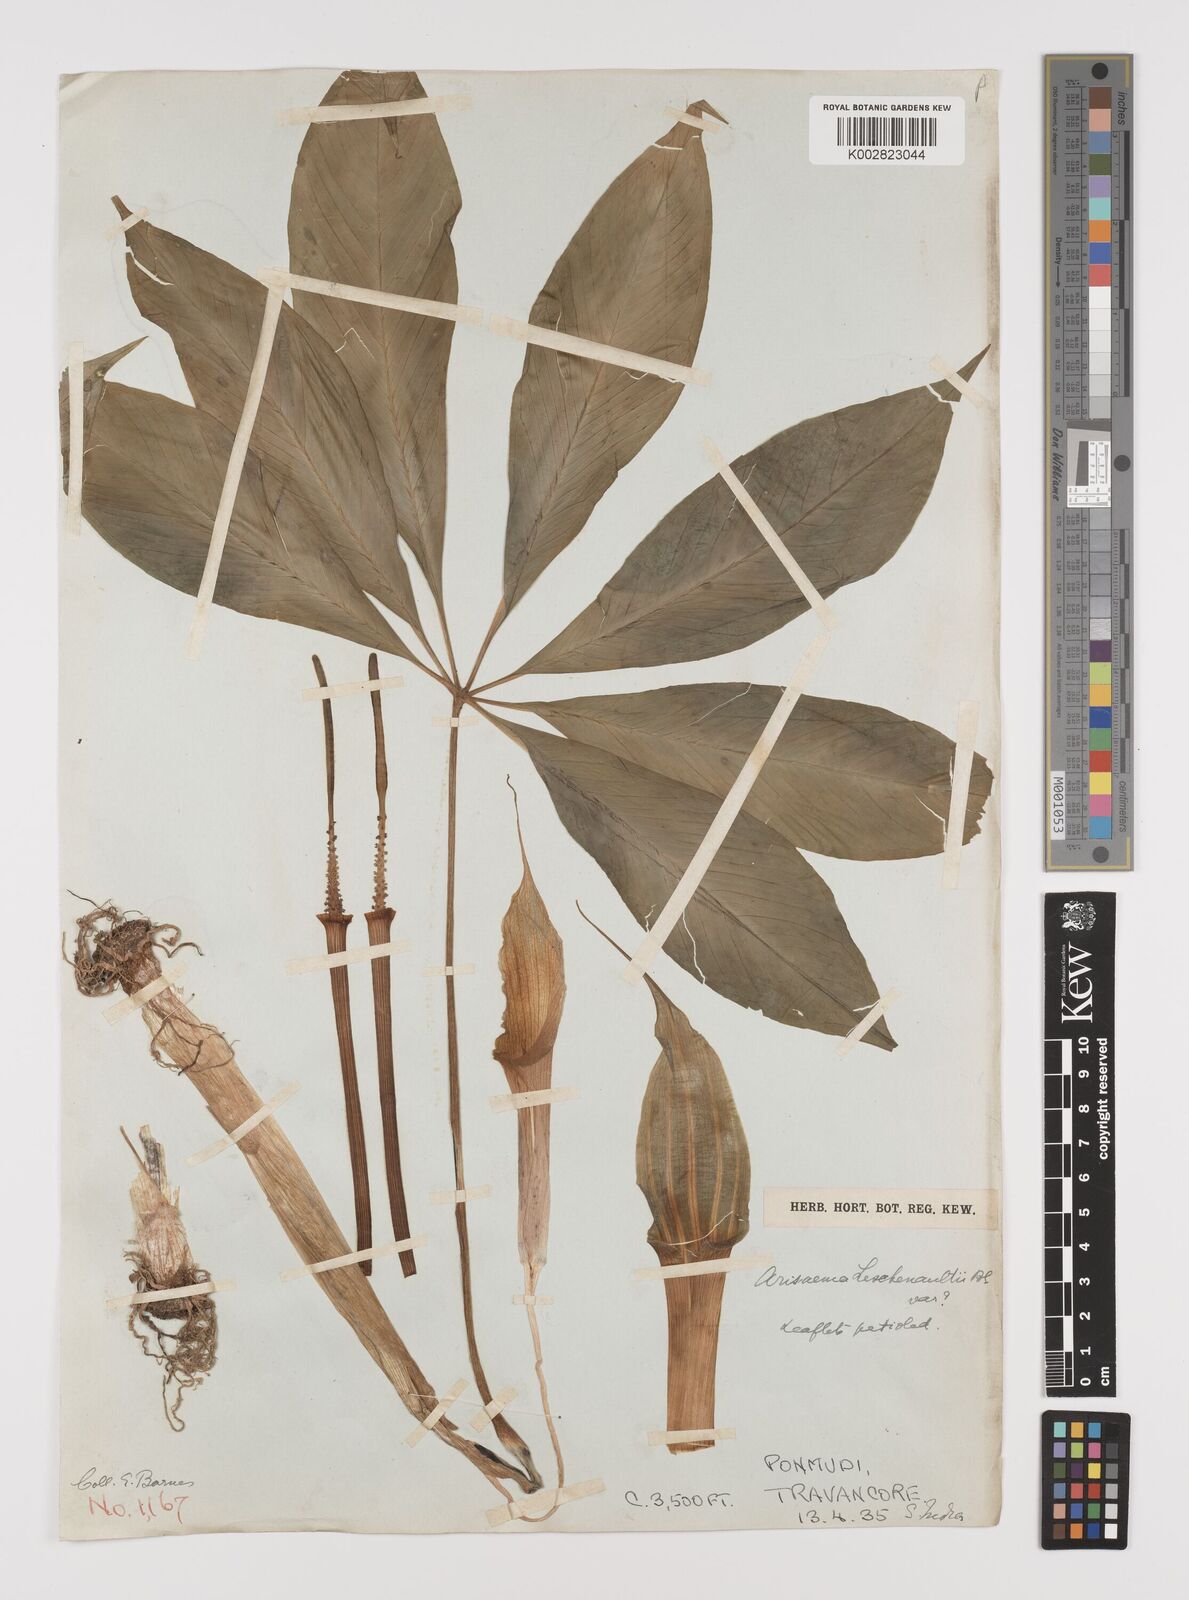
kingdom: Plantae
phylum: Tracheophyta
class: Liliopsida
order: Alismatales
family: Araceae
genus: Arisaema
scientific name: Arisaema leschenaultii
